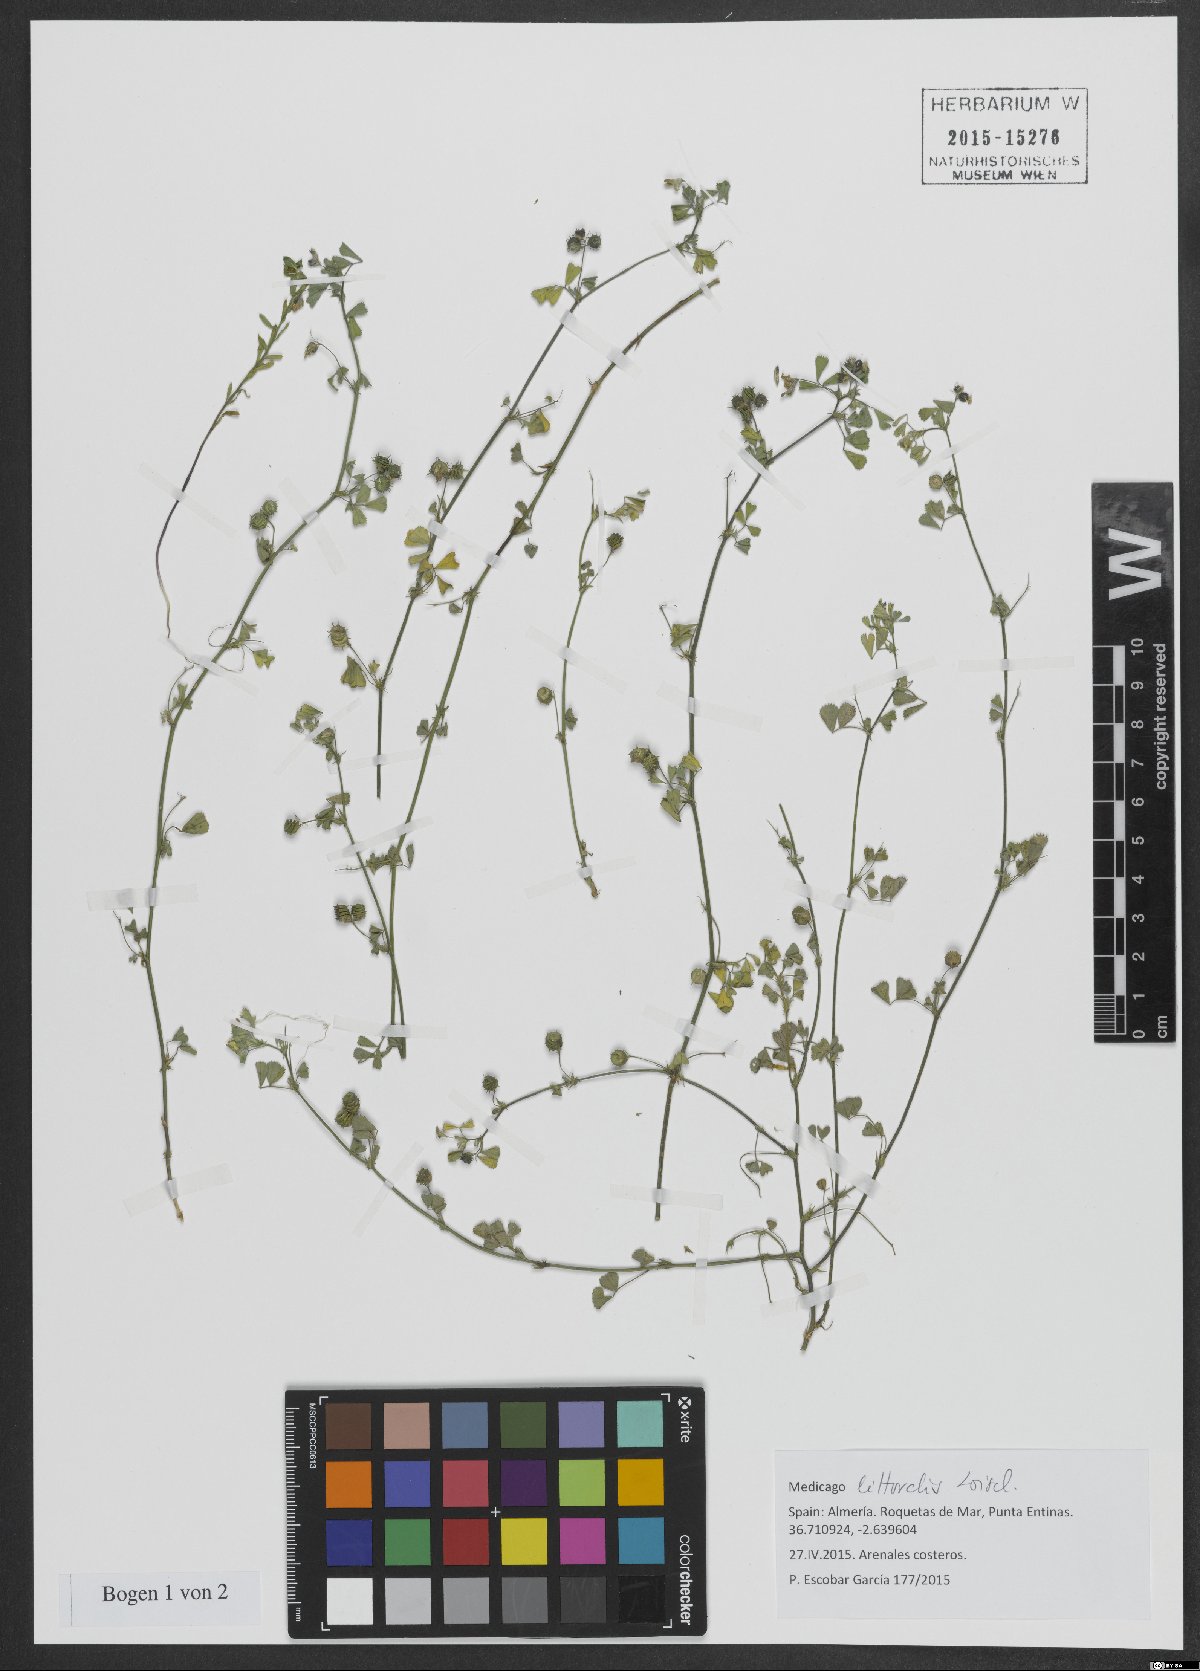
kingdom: Plantae
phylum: Tracheophyta
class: Magnoliopsida
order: Fabales
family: Fabaceae
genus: Medicago
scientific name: Medicago littoralis
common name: Shore medick
